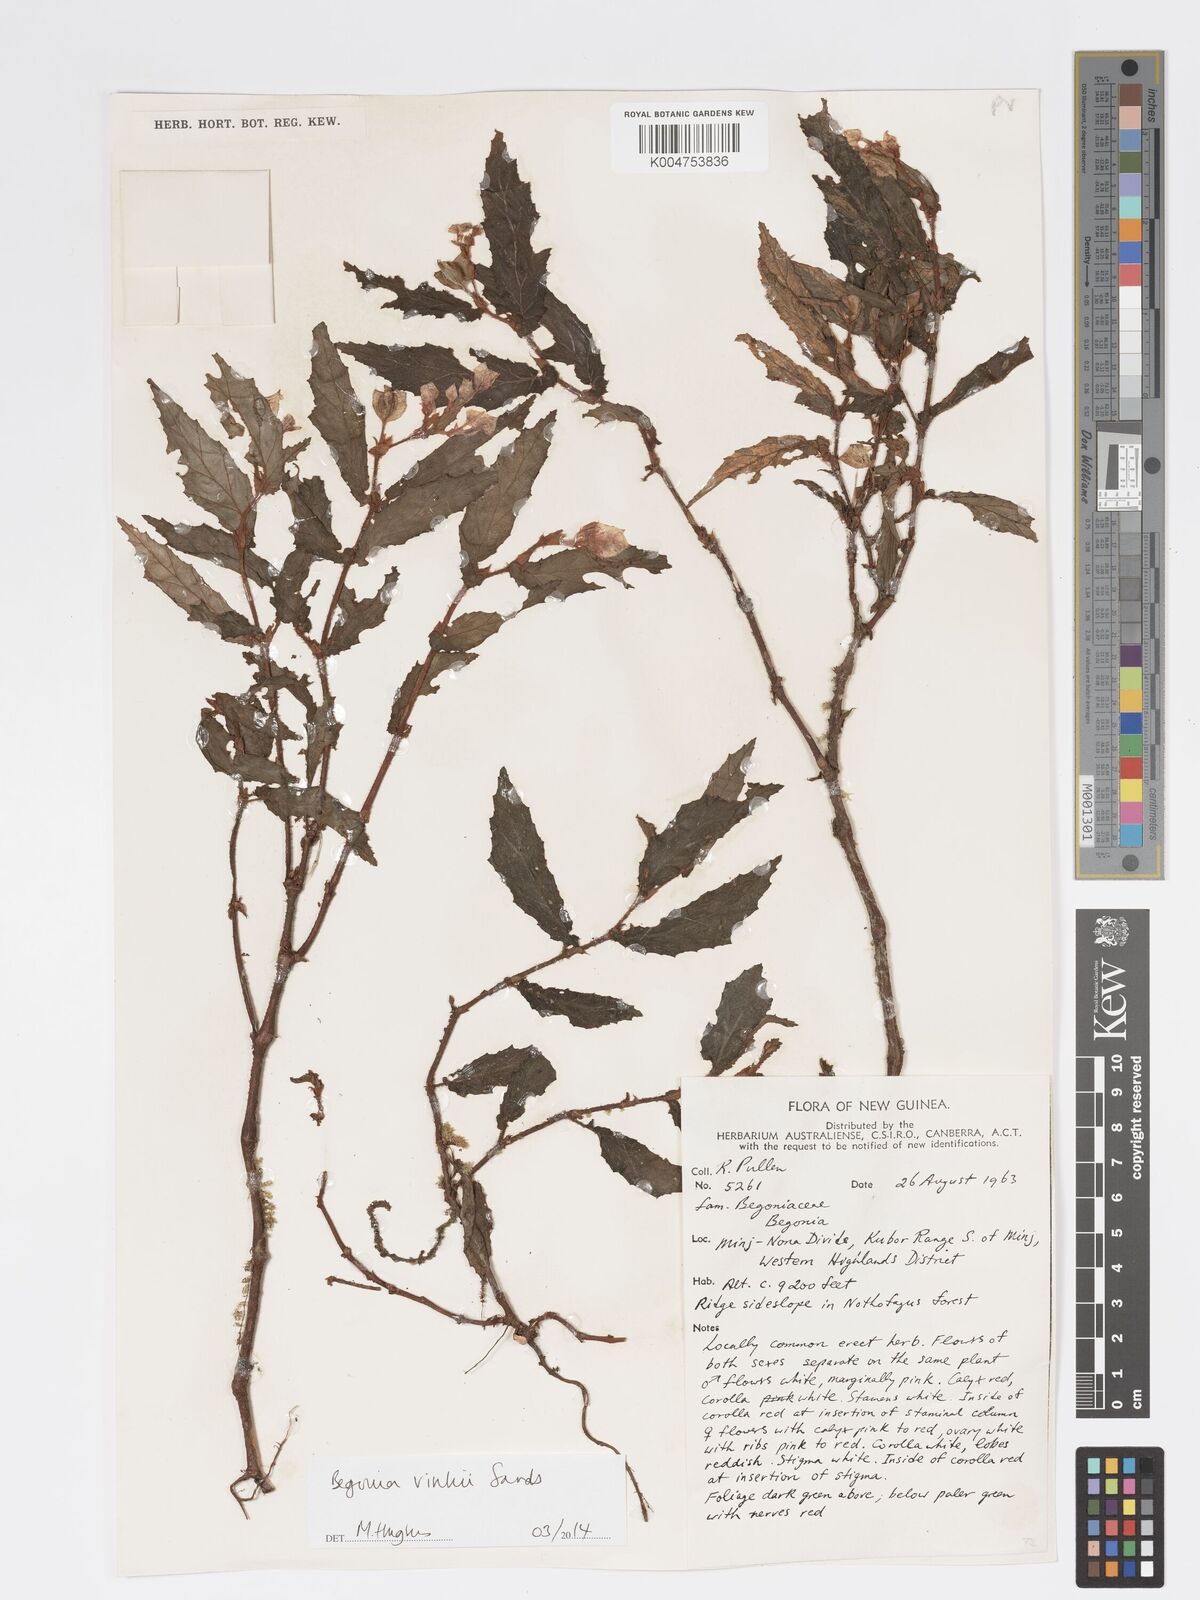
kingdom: Plantae
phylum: Tracheophyta
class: Magnoliopsida
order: Cucurbitales
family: Begoniaceae
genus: Begonia
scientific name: Begonia vinkii
